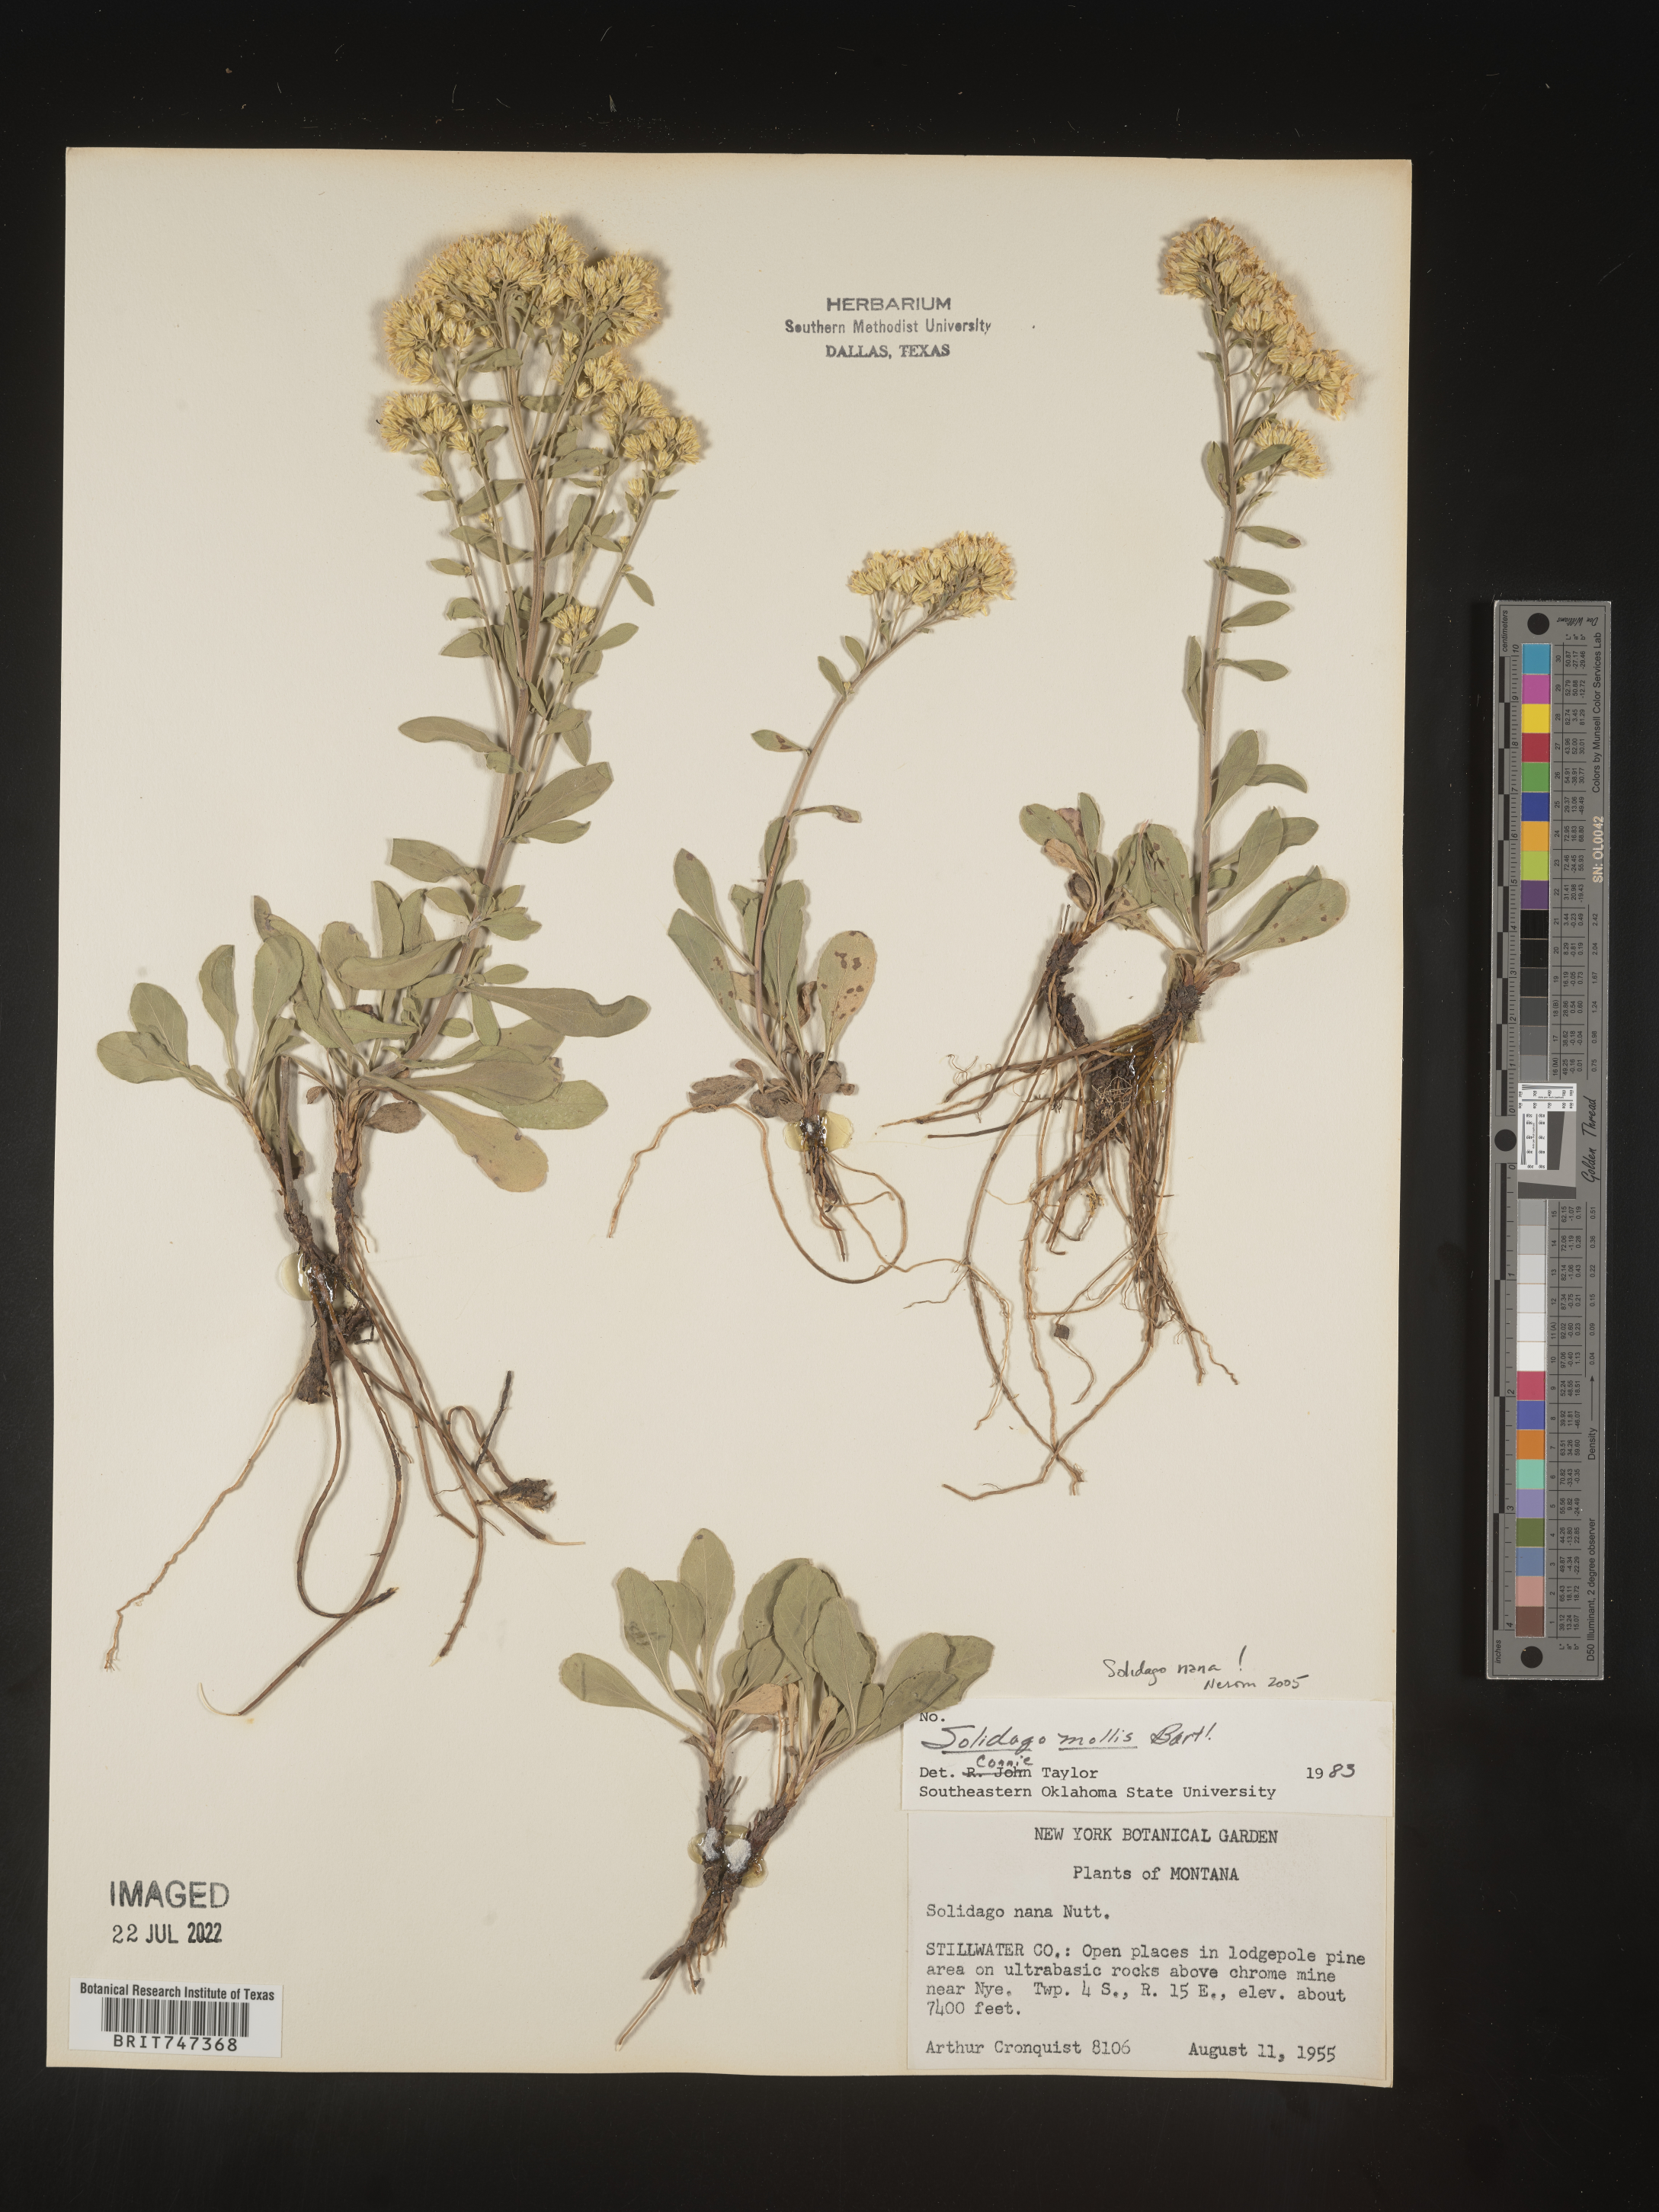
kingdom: Plantae
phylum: Tracheophyta
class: Magnoliopsida
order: Asterales
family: Asteraceae
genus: Solidago
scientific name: Solidago nana
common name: Baby goldenrod
